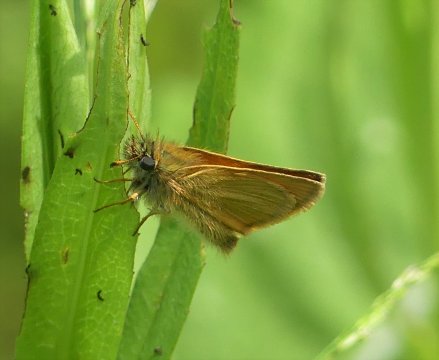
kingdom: Animalia
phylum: Arthropoda
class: Insecta
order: Lepidoptera
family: Hesperiidae
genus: Thymelicus
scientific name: Thymelicus lineola
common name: European Skipper
